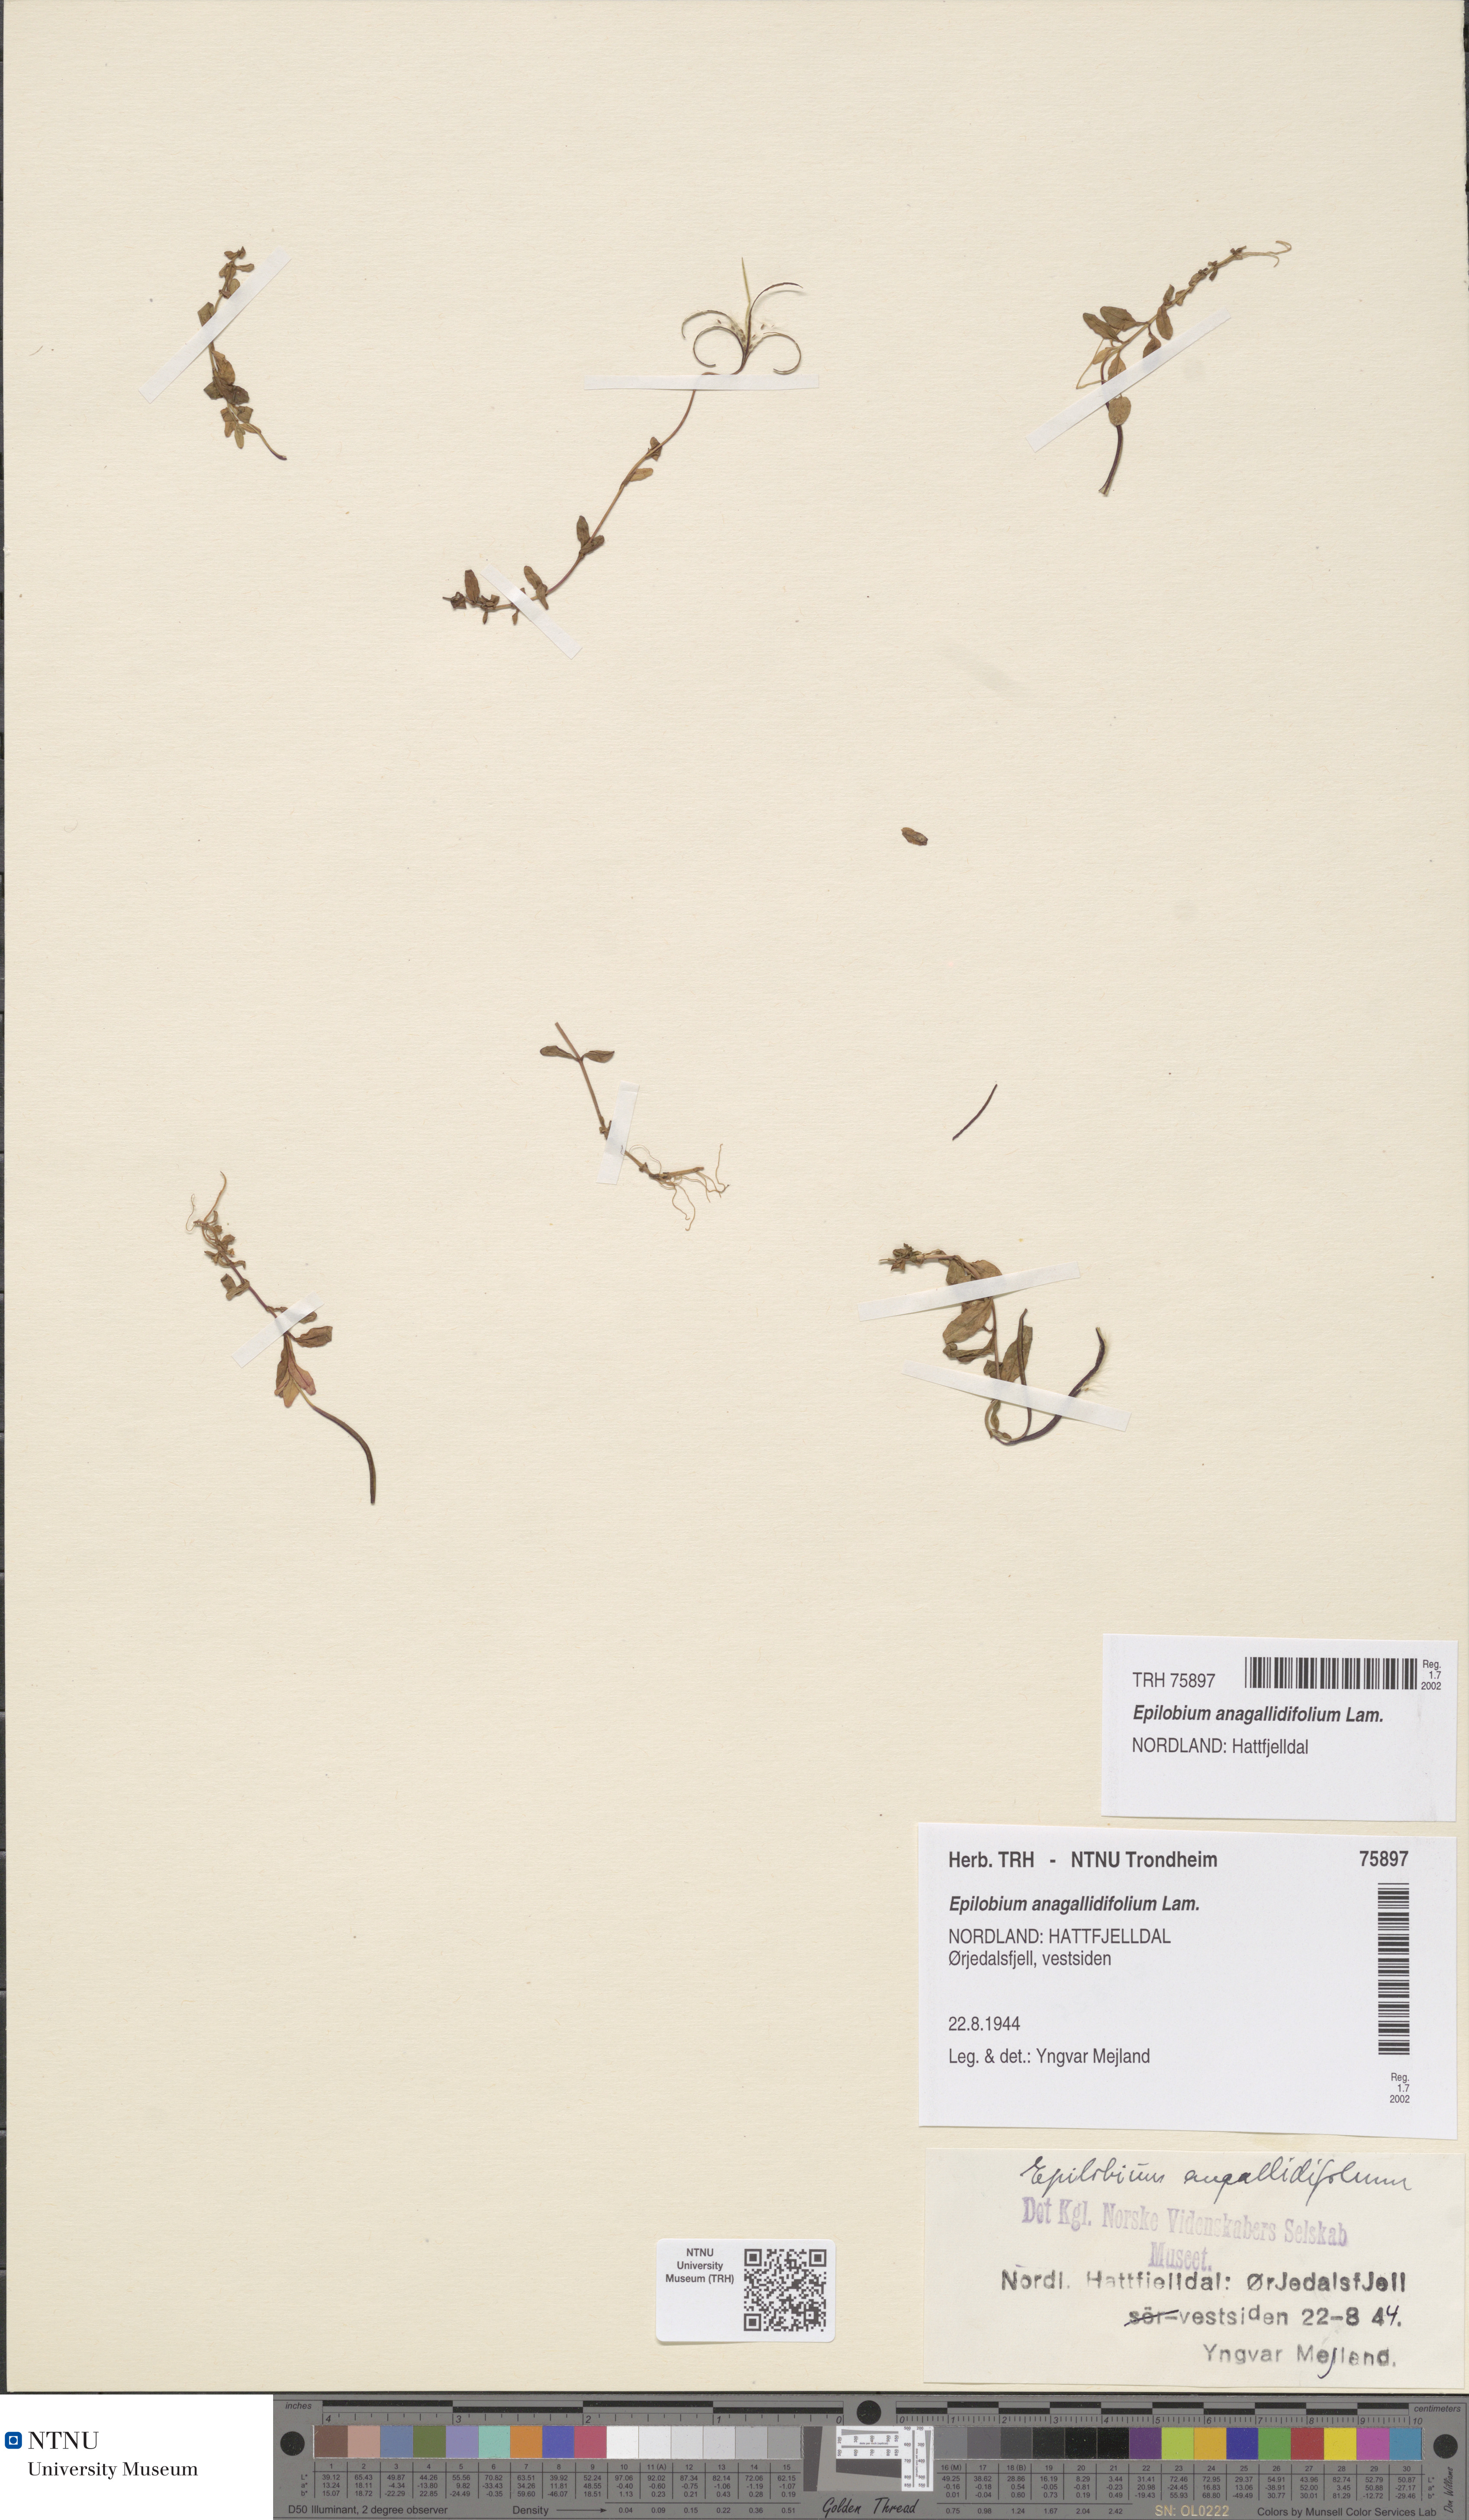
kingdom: Plantae
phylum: Tracheophyta
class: Magnoliopsida
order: Myrtales
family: Onagraceae
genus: Epilobium
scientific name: Epilobium anagallidifolium
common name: Alpine willowherb
